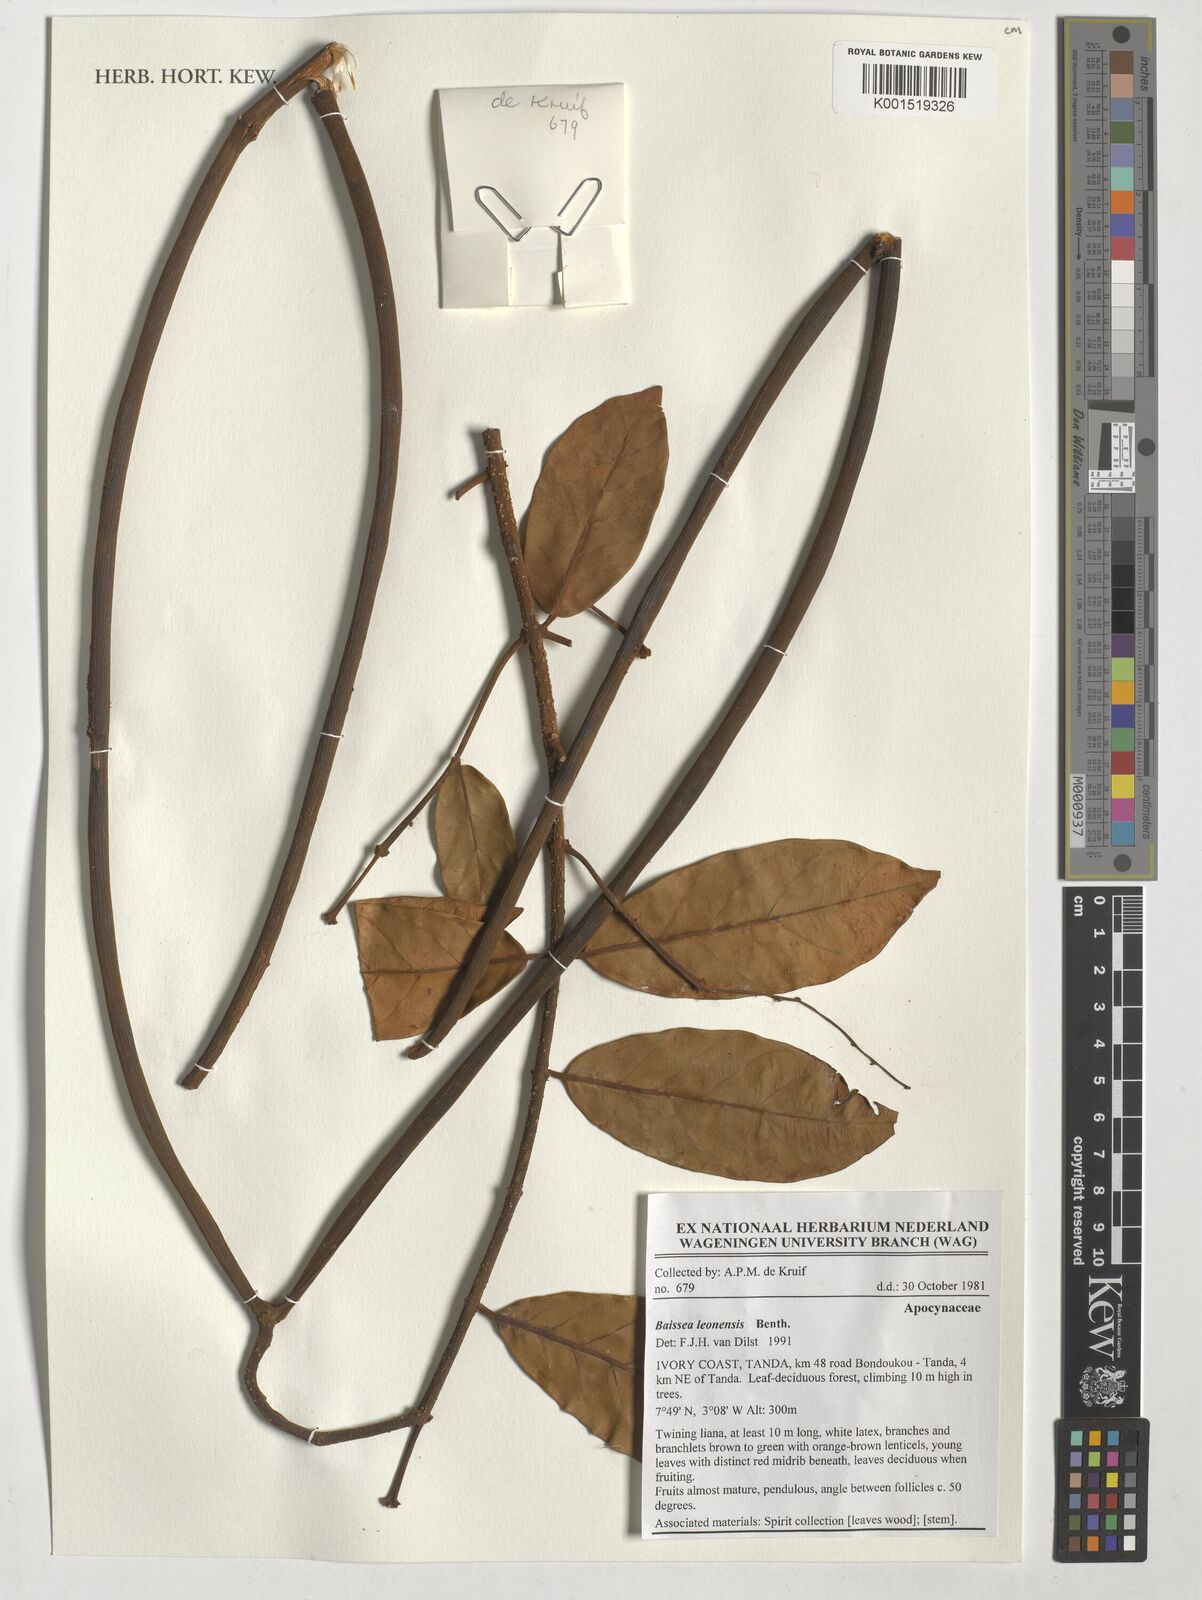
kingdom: Plantae
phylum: Tracheophyta
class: Magnoliopsida
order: Gentianales
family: Apocynaceae
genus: Baissea
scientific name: Baissea leonensis
